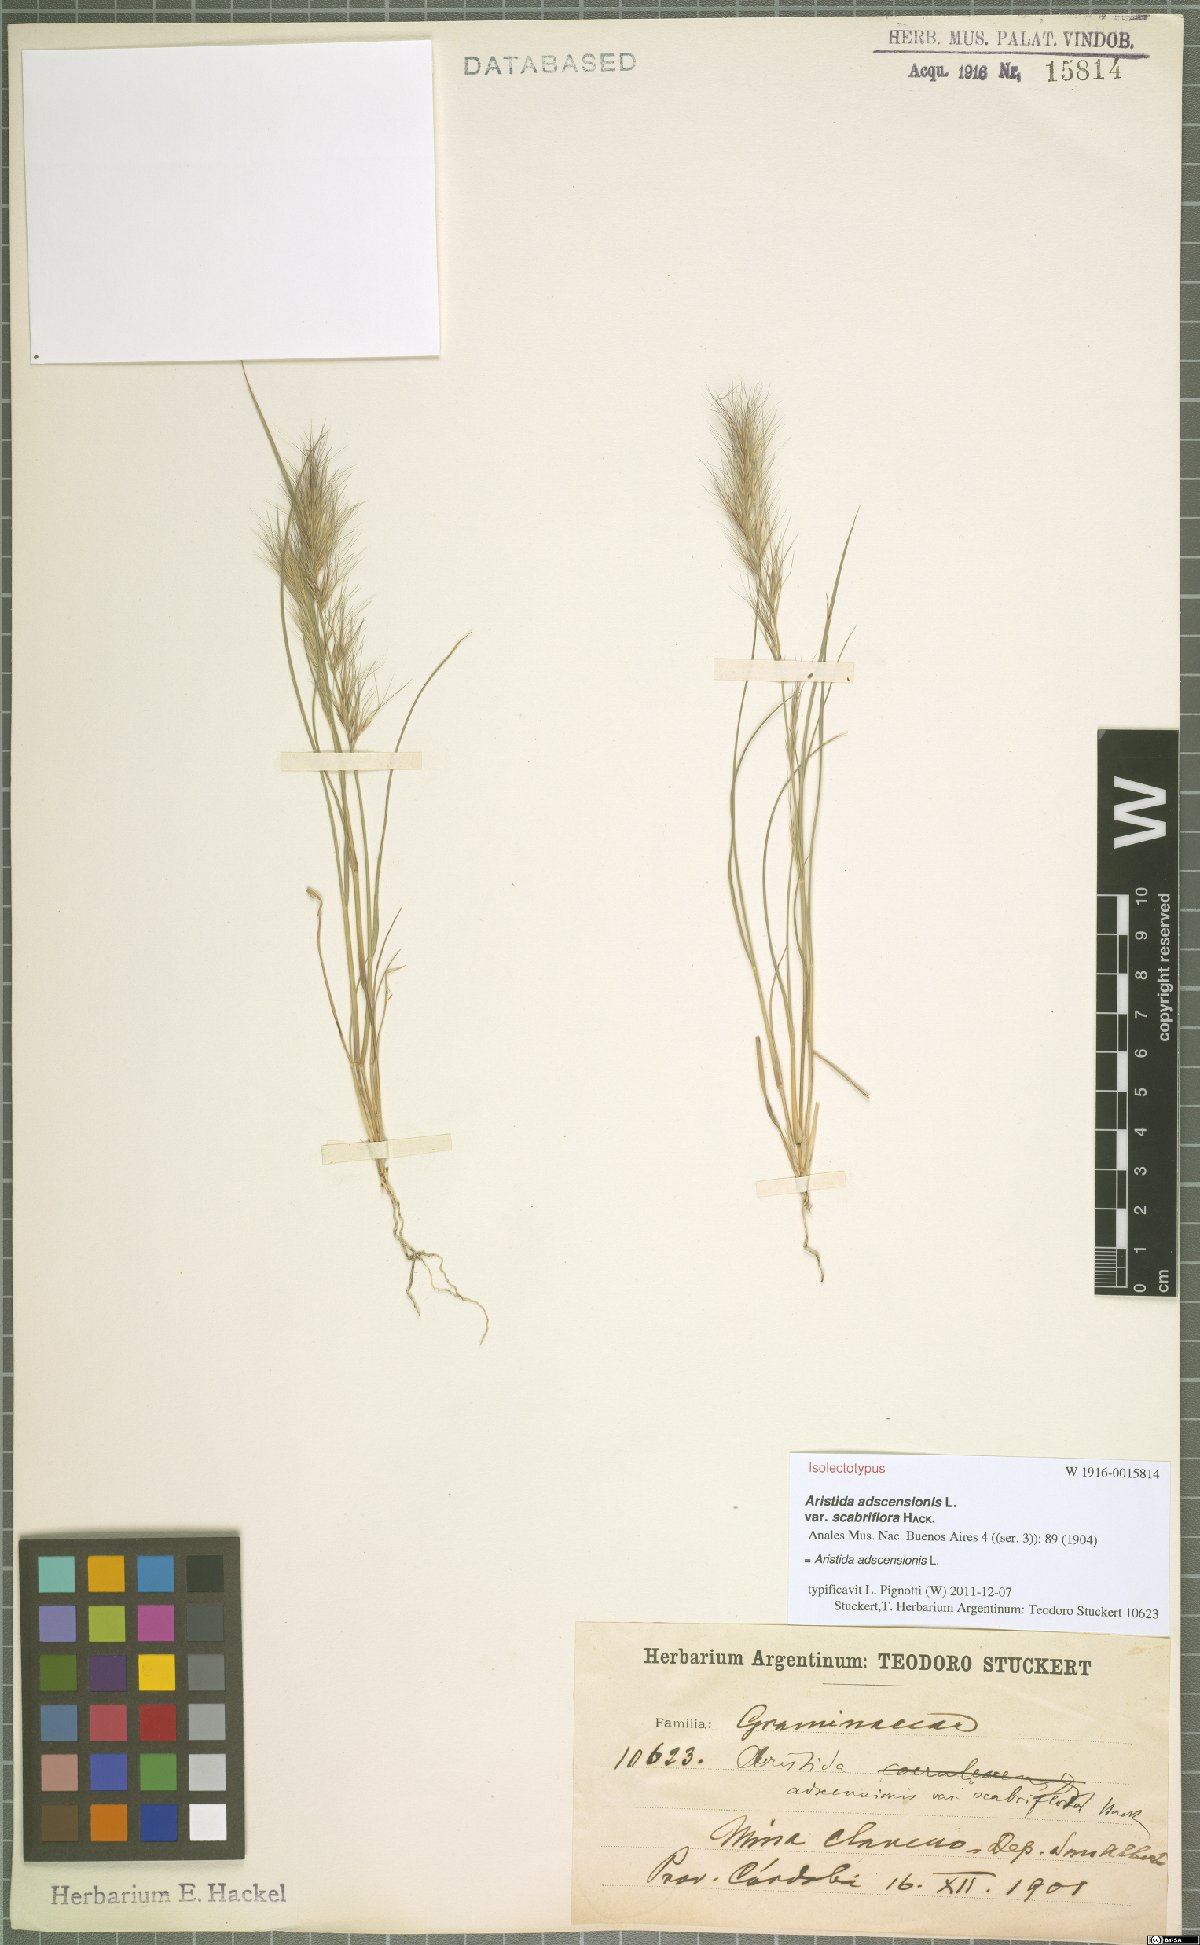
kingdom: Plantae
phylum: Tracheophyta
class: Liliopsida
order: Poales
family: Poaceae
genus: Aristida
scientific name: Aristida adscensionis
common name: Sixweeks threeawn
